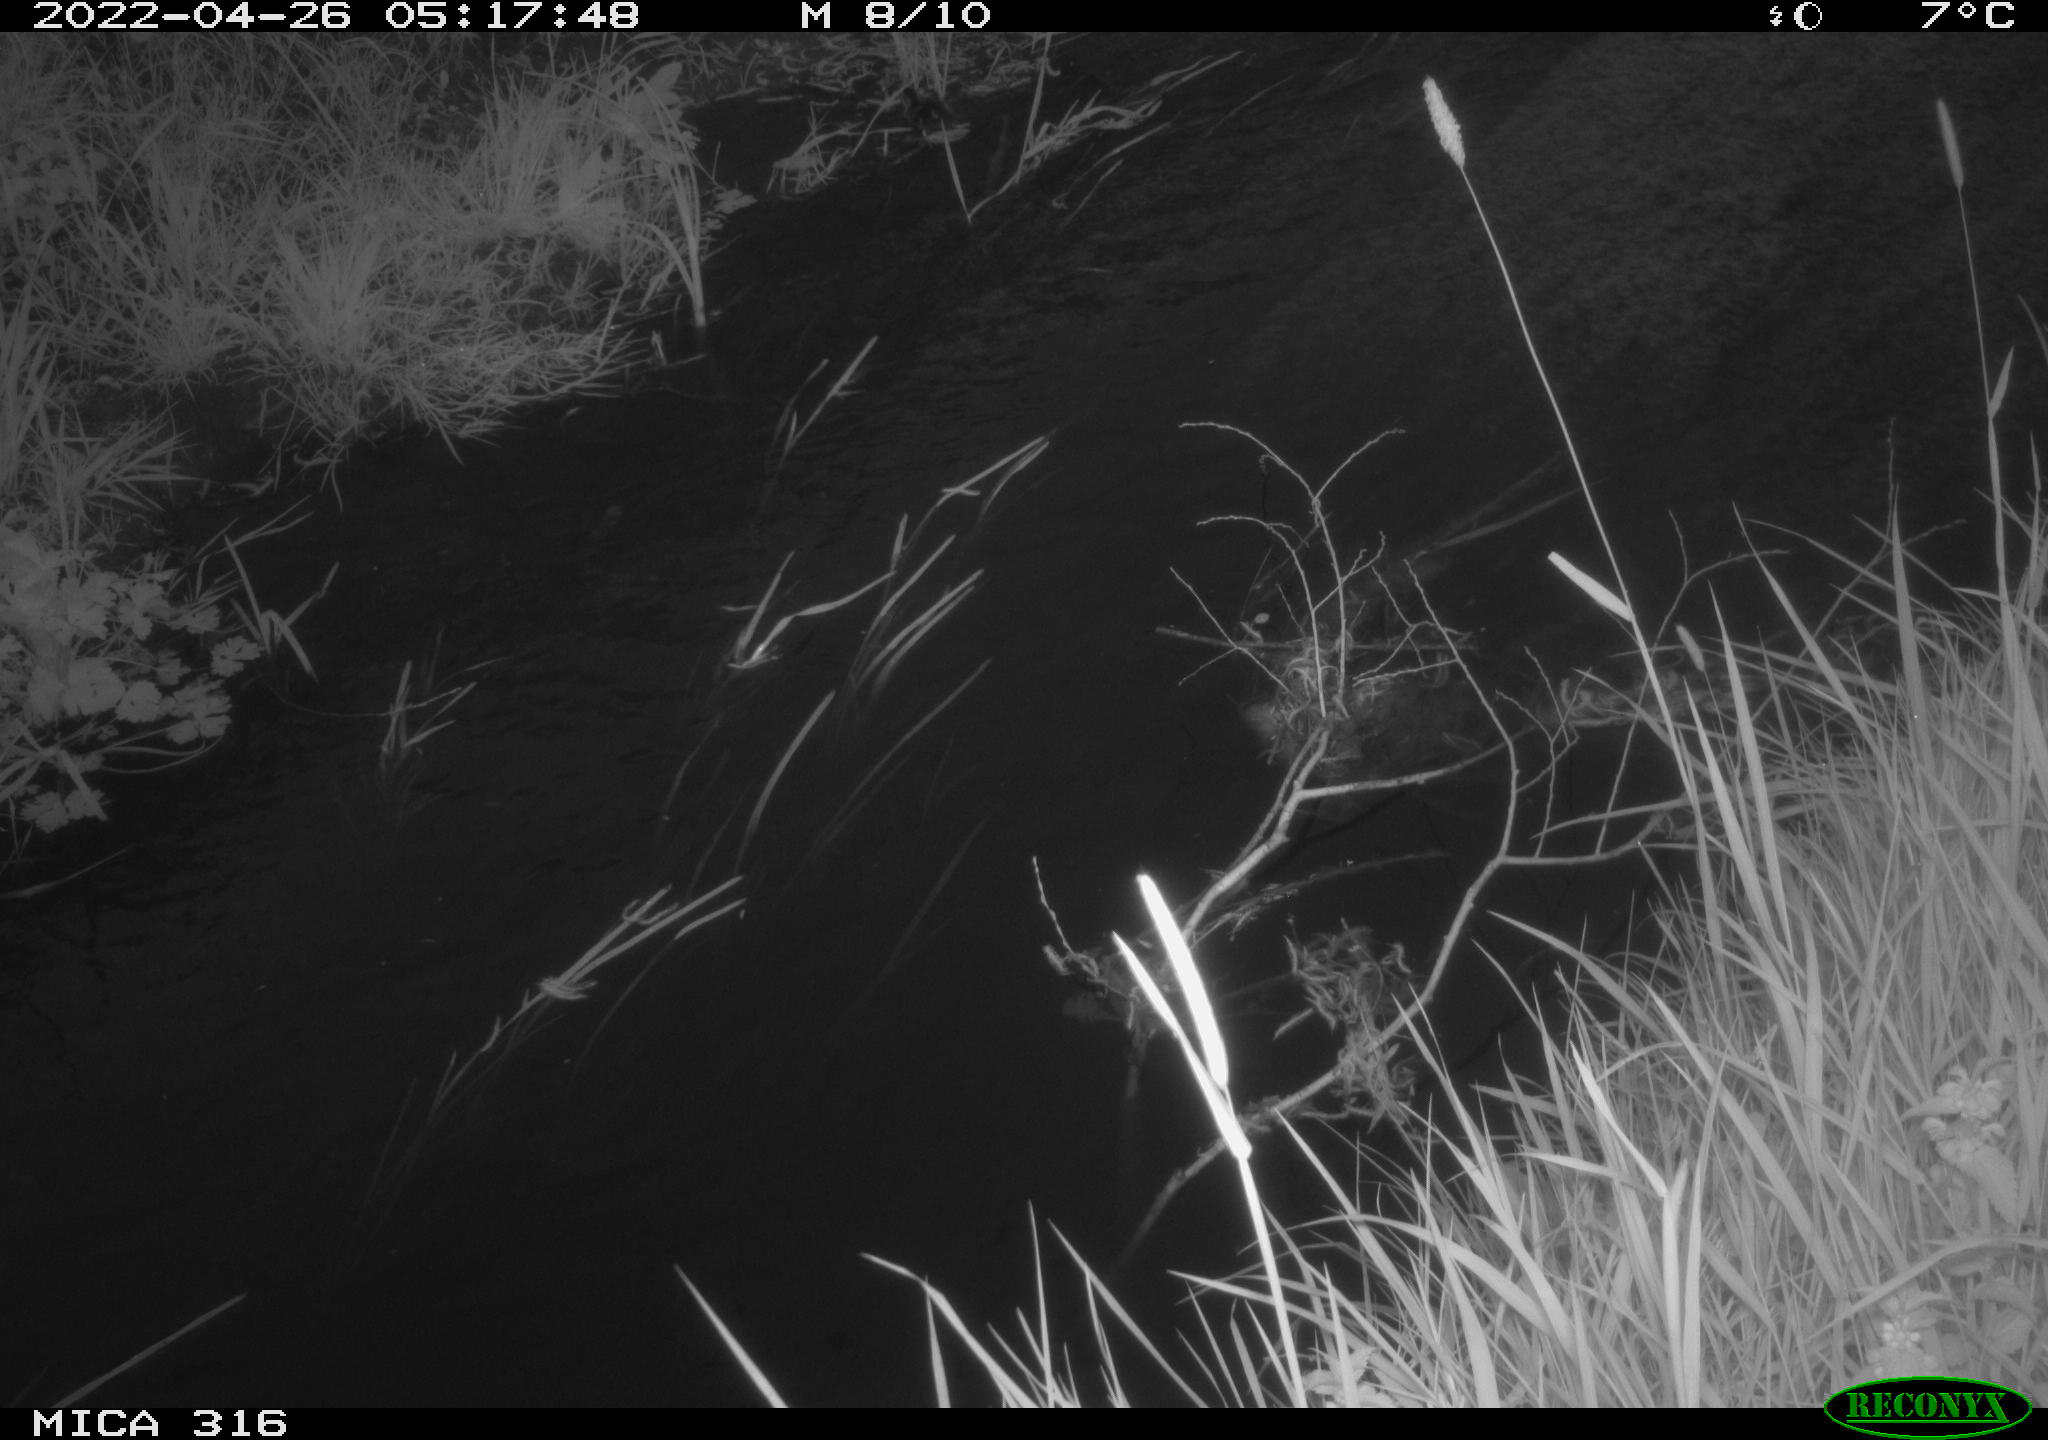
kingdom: Animalia
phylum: Chordata
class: Aves
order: Anseriformes
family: Anatidae
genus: Anas
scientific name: Anas platyrhynchos
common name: Mallard
